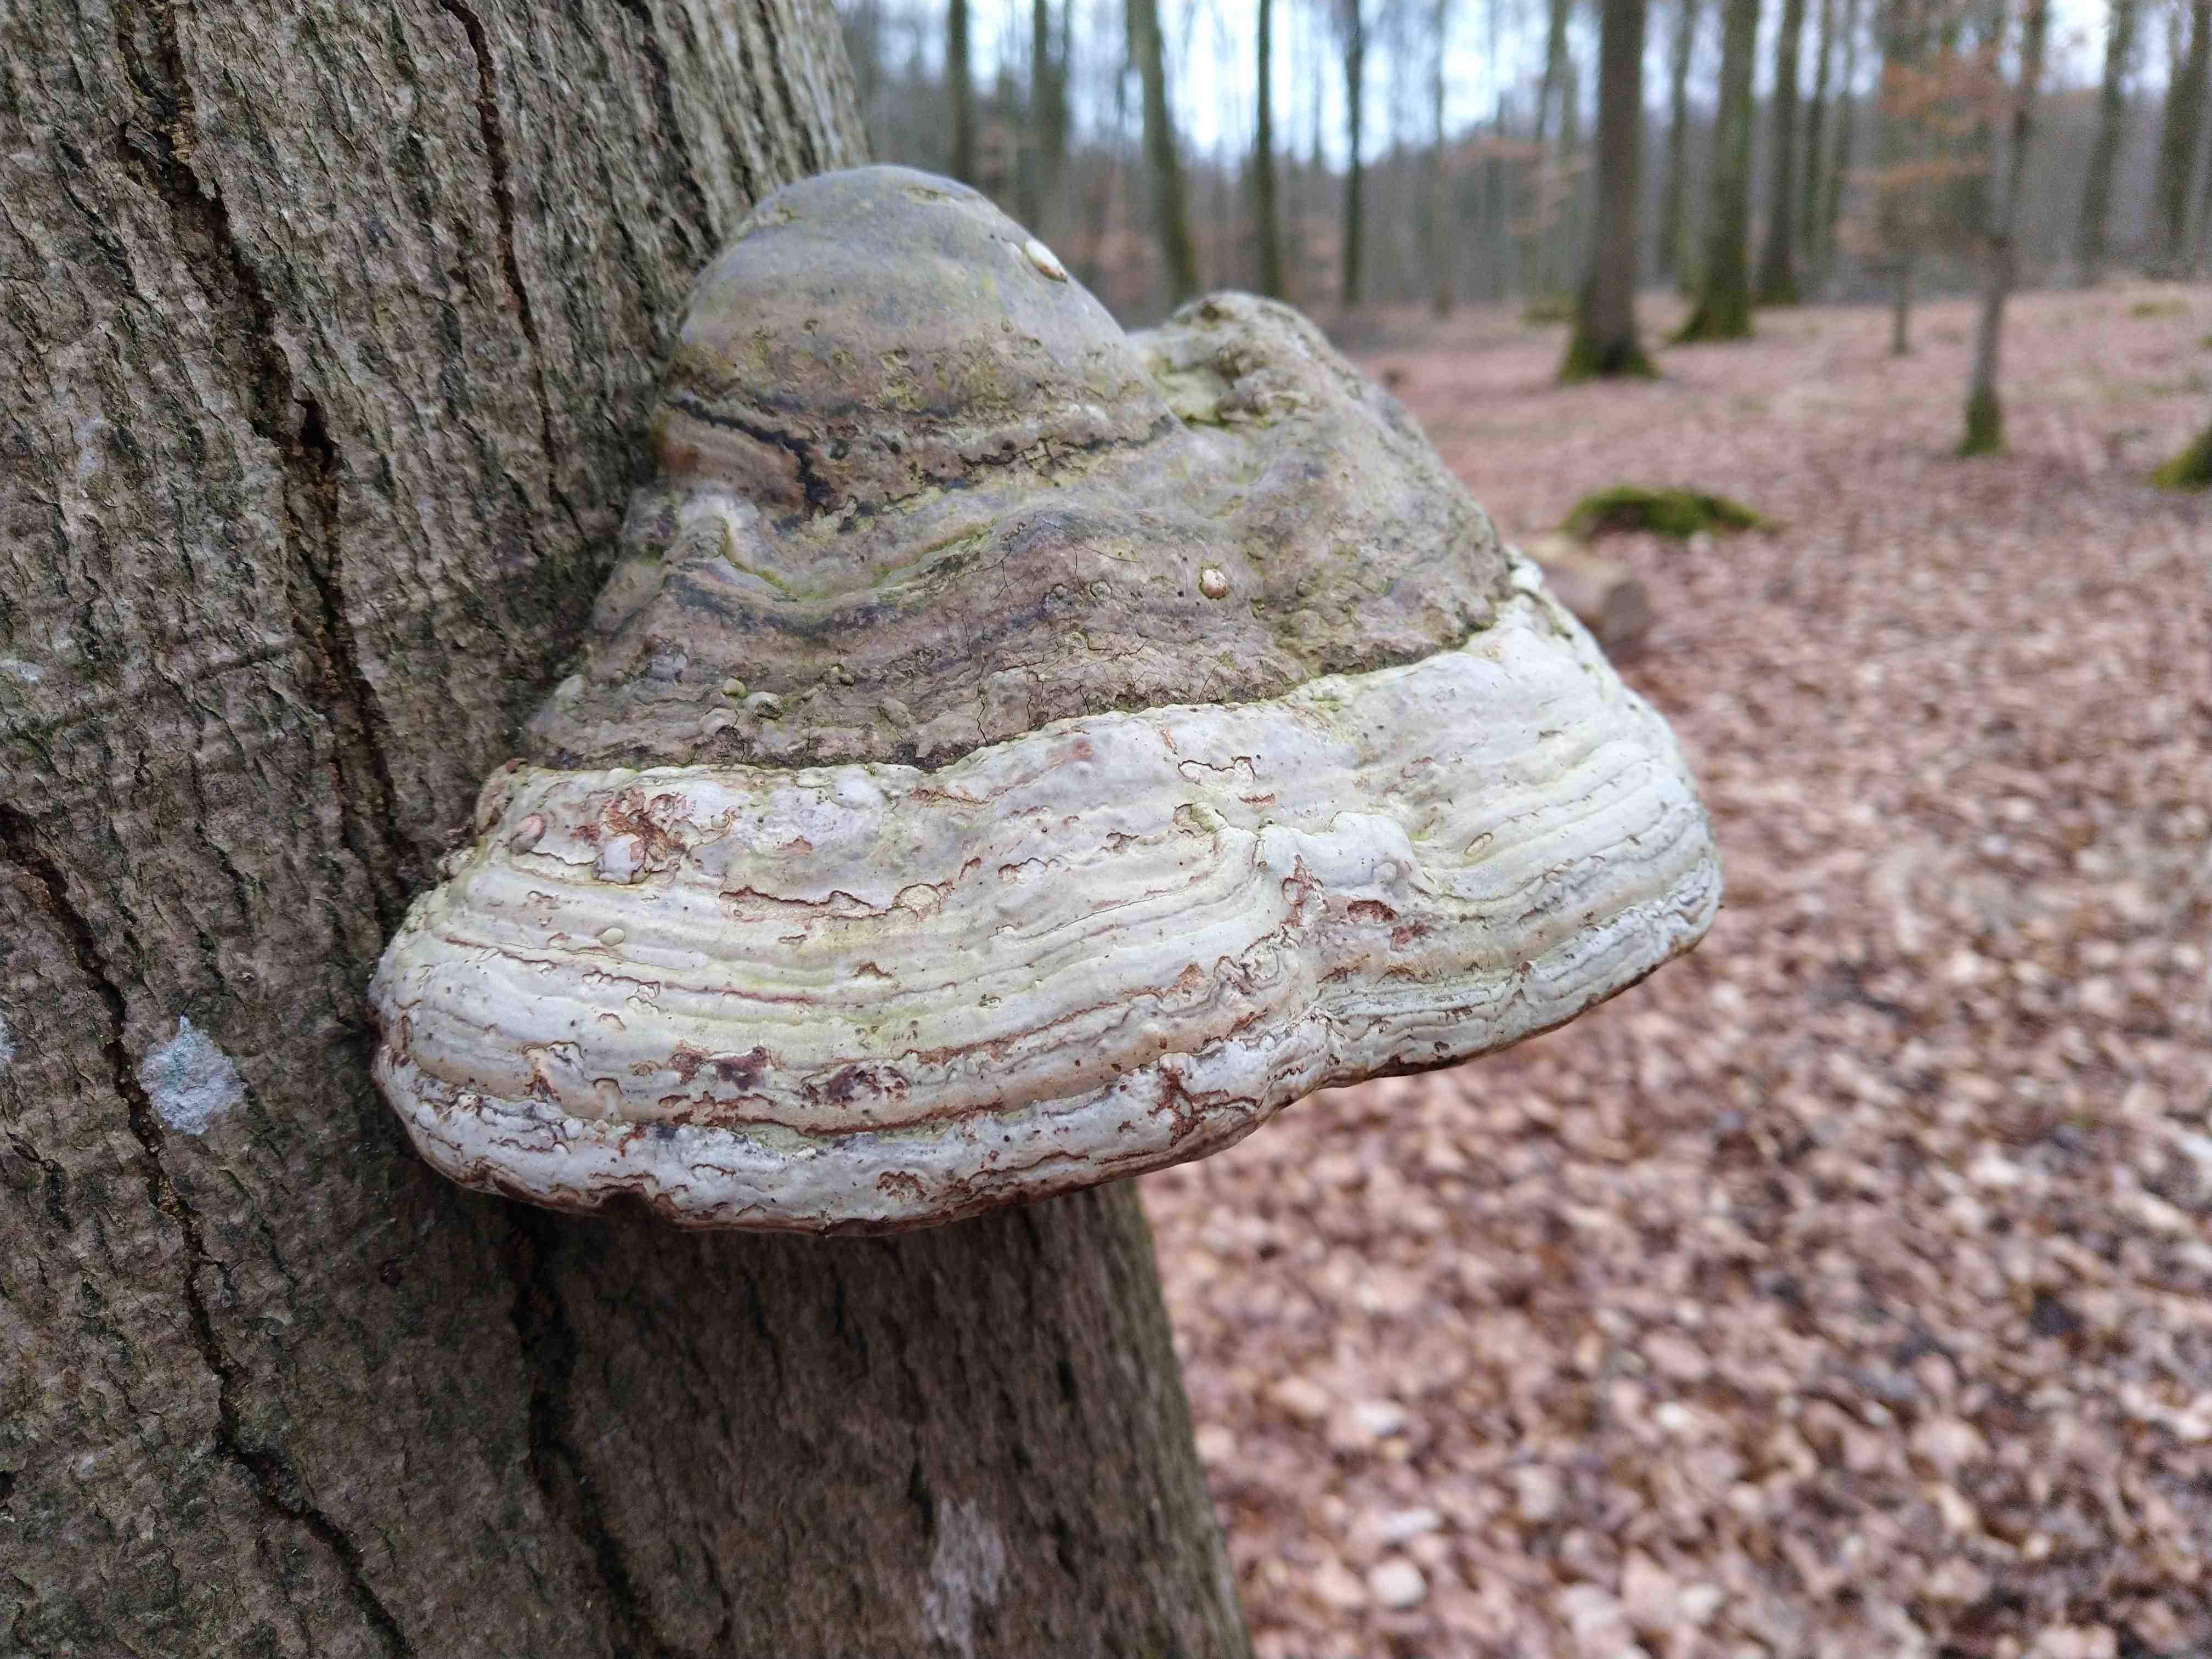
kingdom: Fungi
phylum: Basidiomycota
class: Agaricomycetes
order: Polyporales
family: Polyporaceae
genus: Fomes
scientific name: Fomes fomentarius
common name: tøndersvamp
